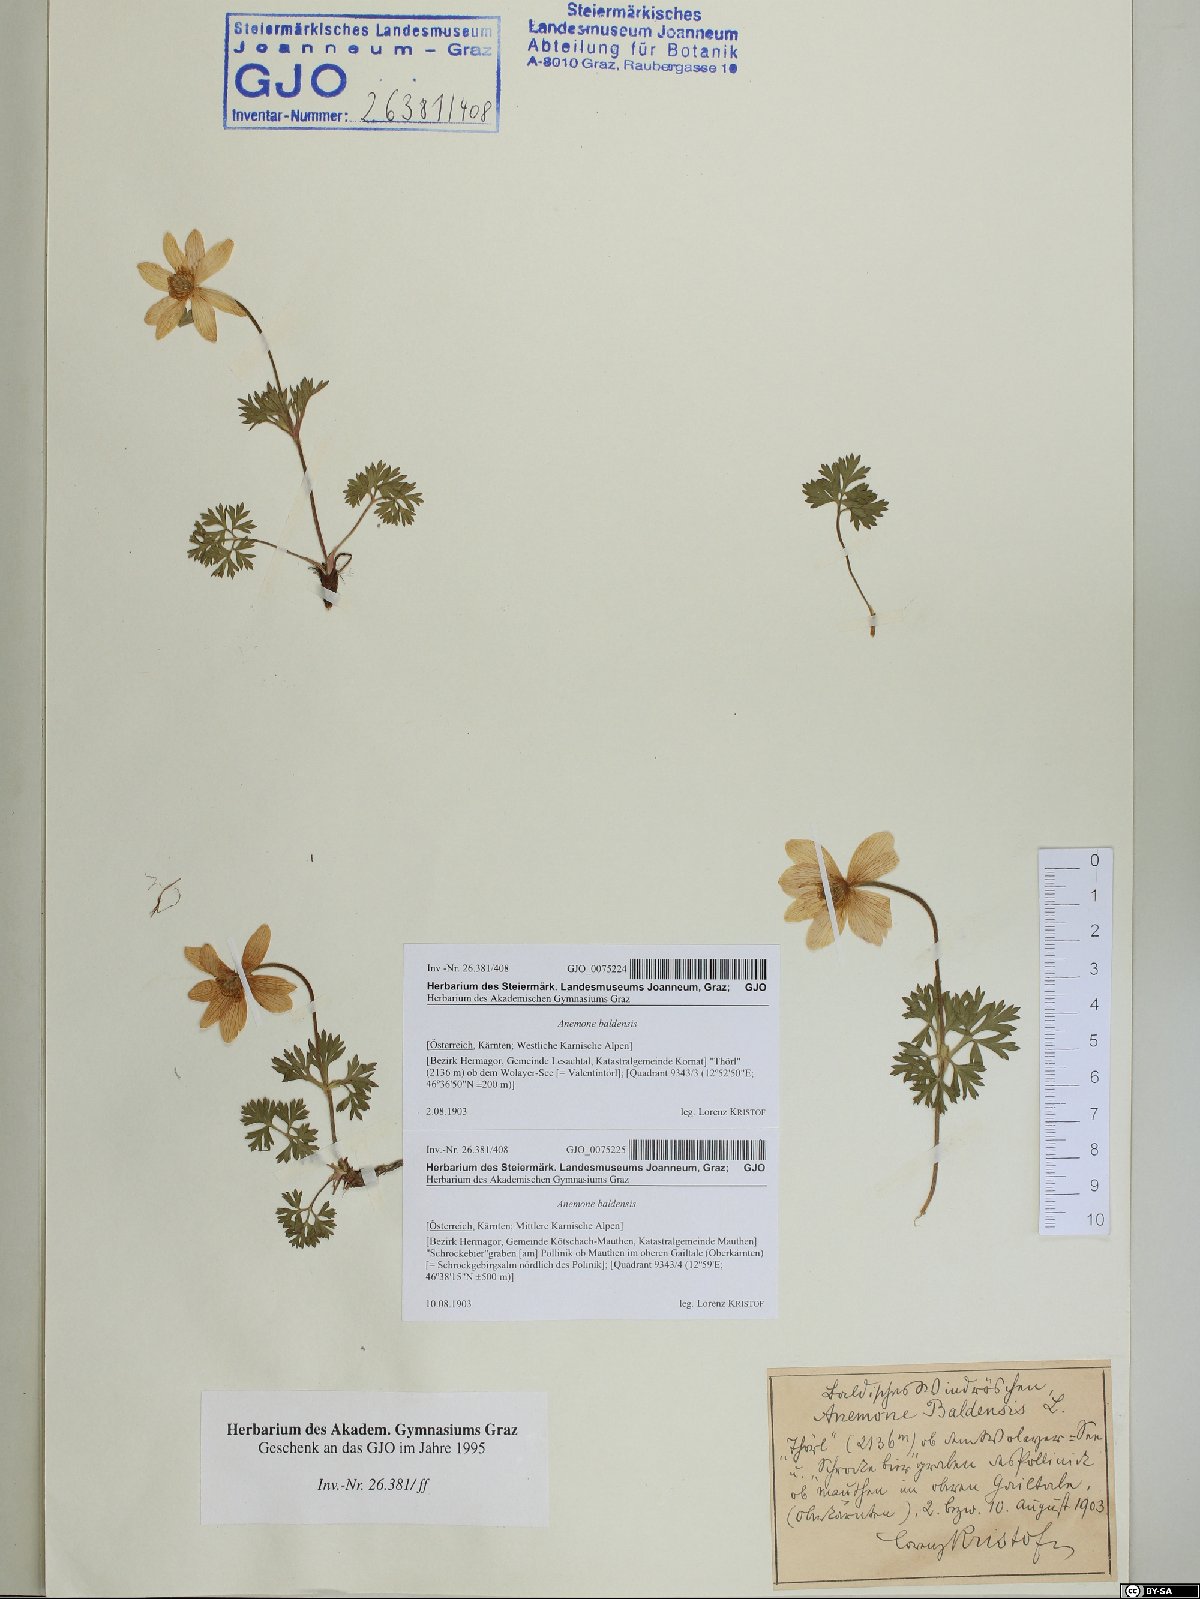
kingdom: Plantae
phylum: Tracheophyta
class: Magnoliopsida
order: Ranunculales
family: Ranunculaceae
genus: Anemone
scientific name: Anemone baldensis
